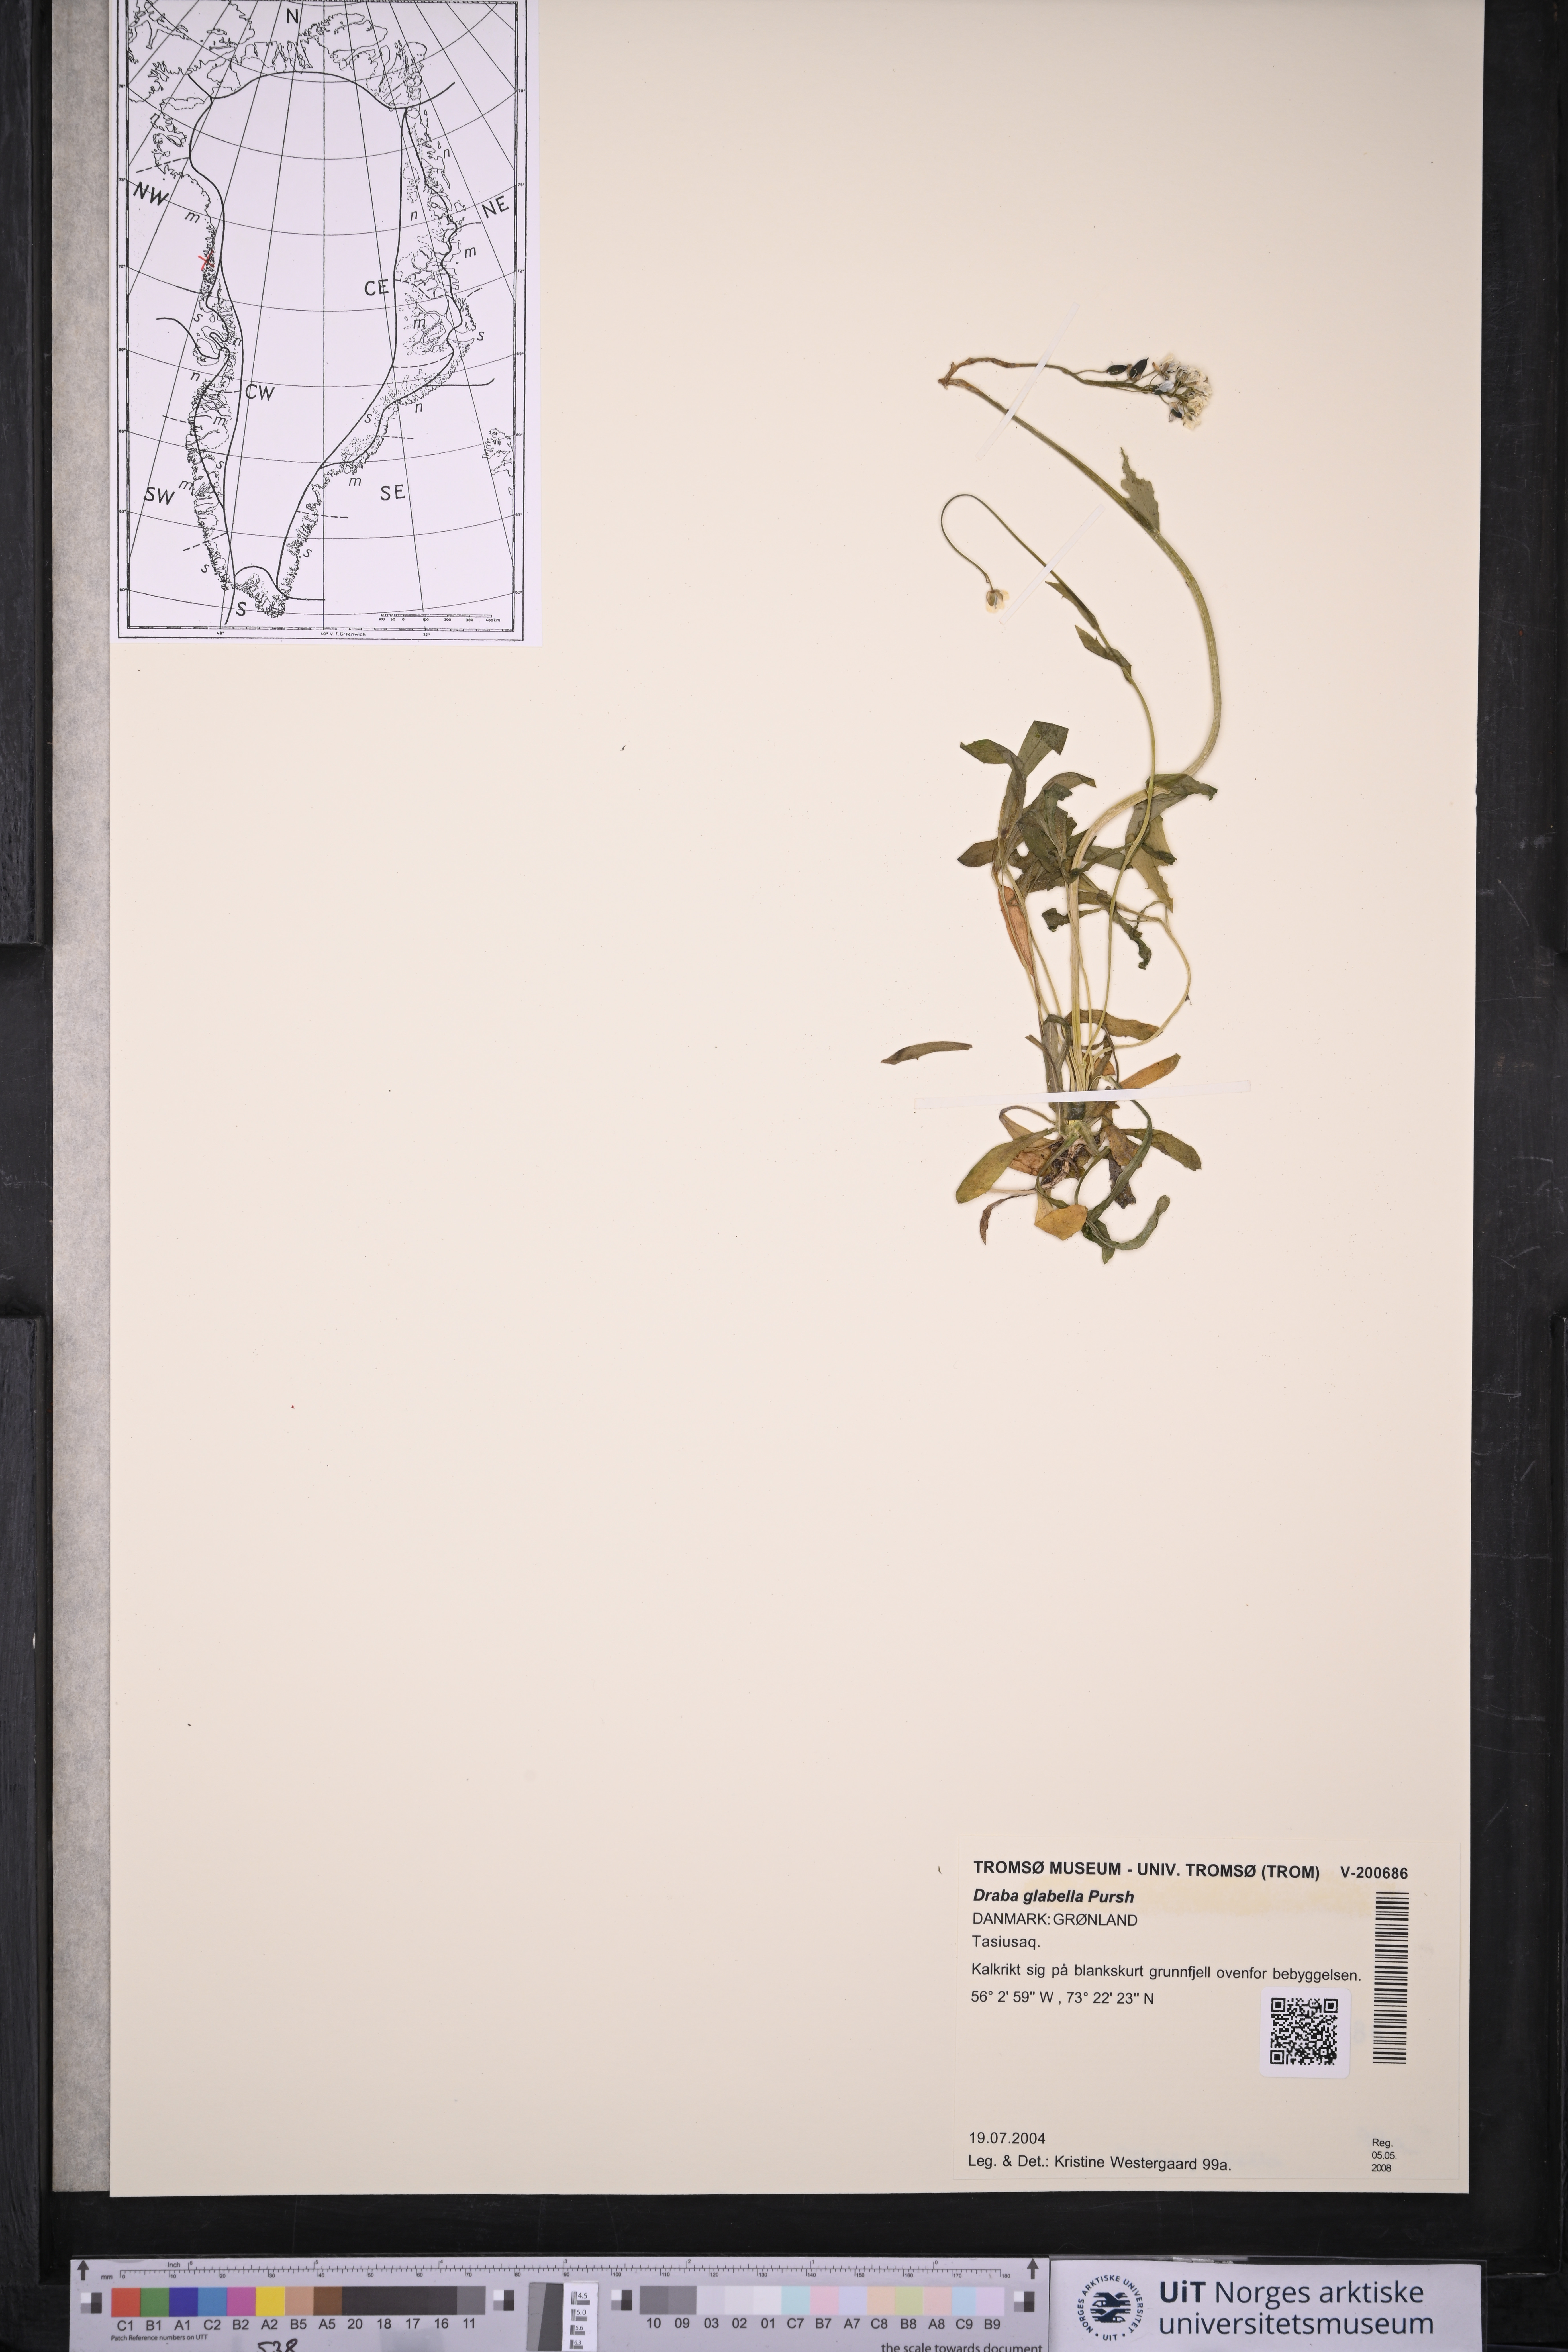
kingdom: Plantae
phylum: Tracheophyta
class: Magnoliopsida
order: Brassicales
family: Brassicaceae
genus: Draba
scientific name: Draba glabella
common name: Glaucous draba
